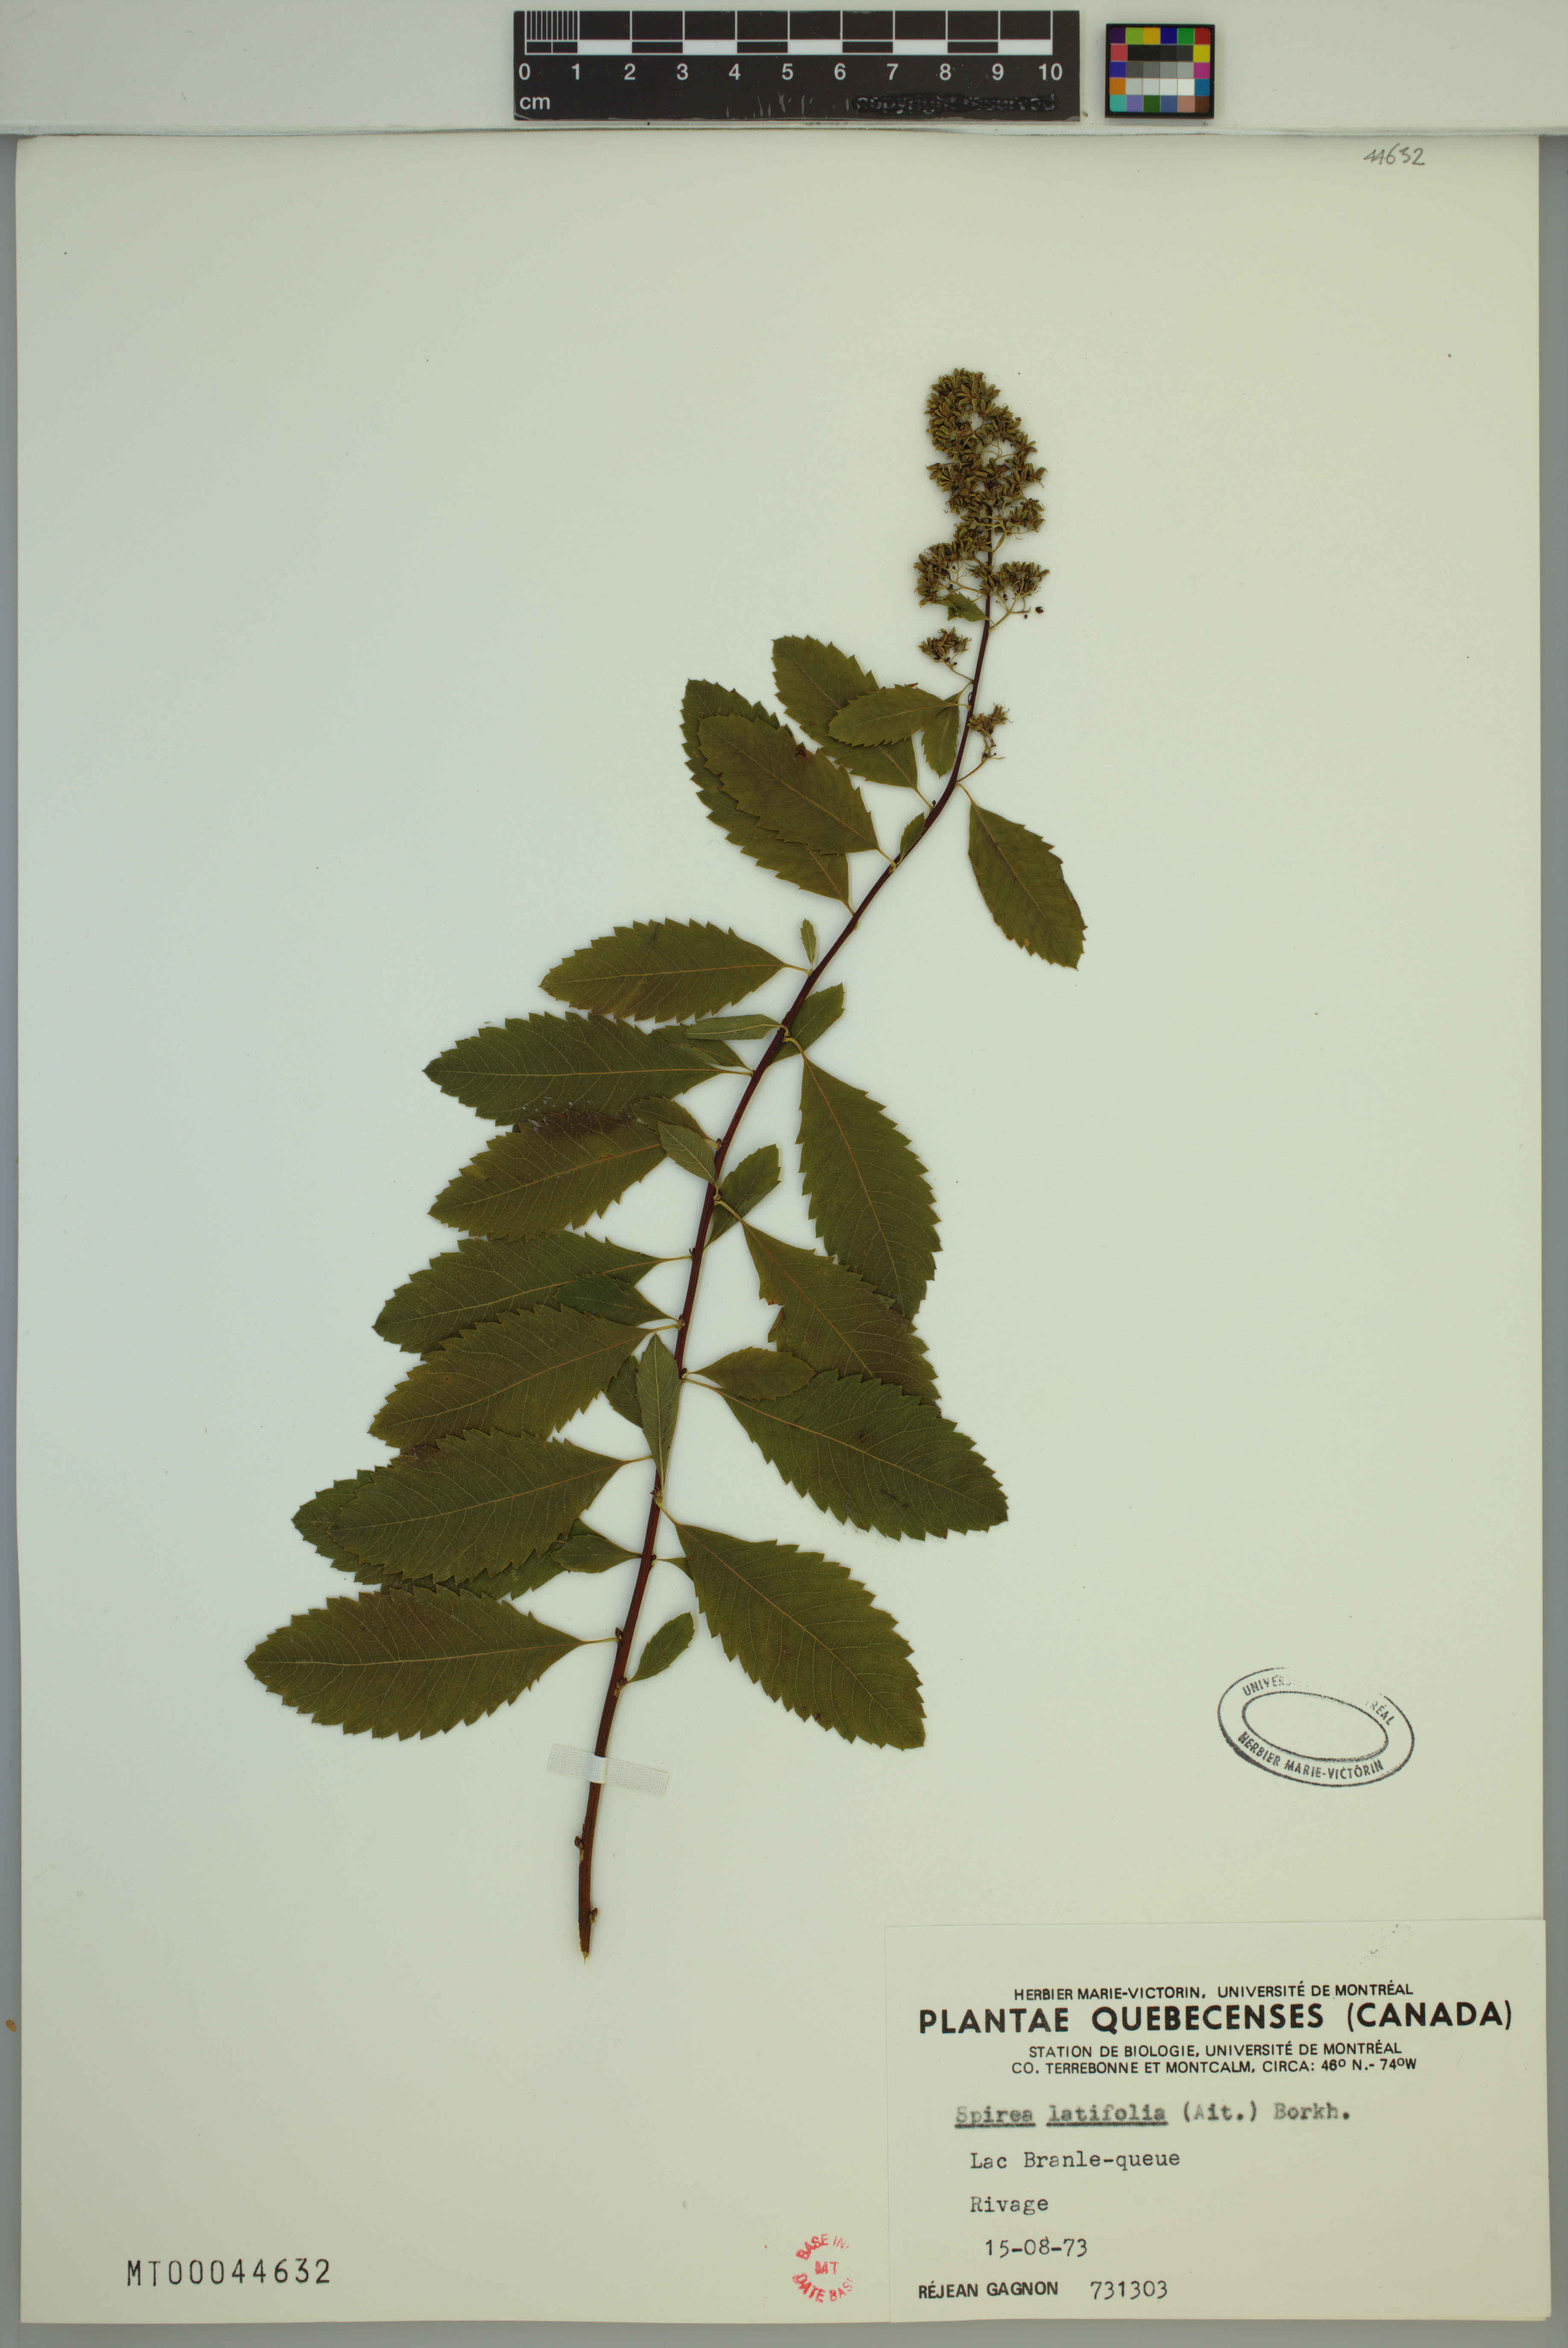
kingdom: Plantae
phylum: Tracheophyta
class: Magnoliopsida
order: Rosales
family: Rosaceae
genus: Spiraea
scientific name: Spiraea alba
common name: Pale bridewort
